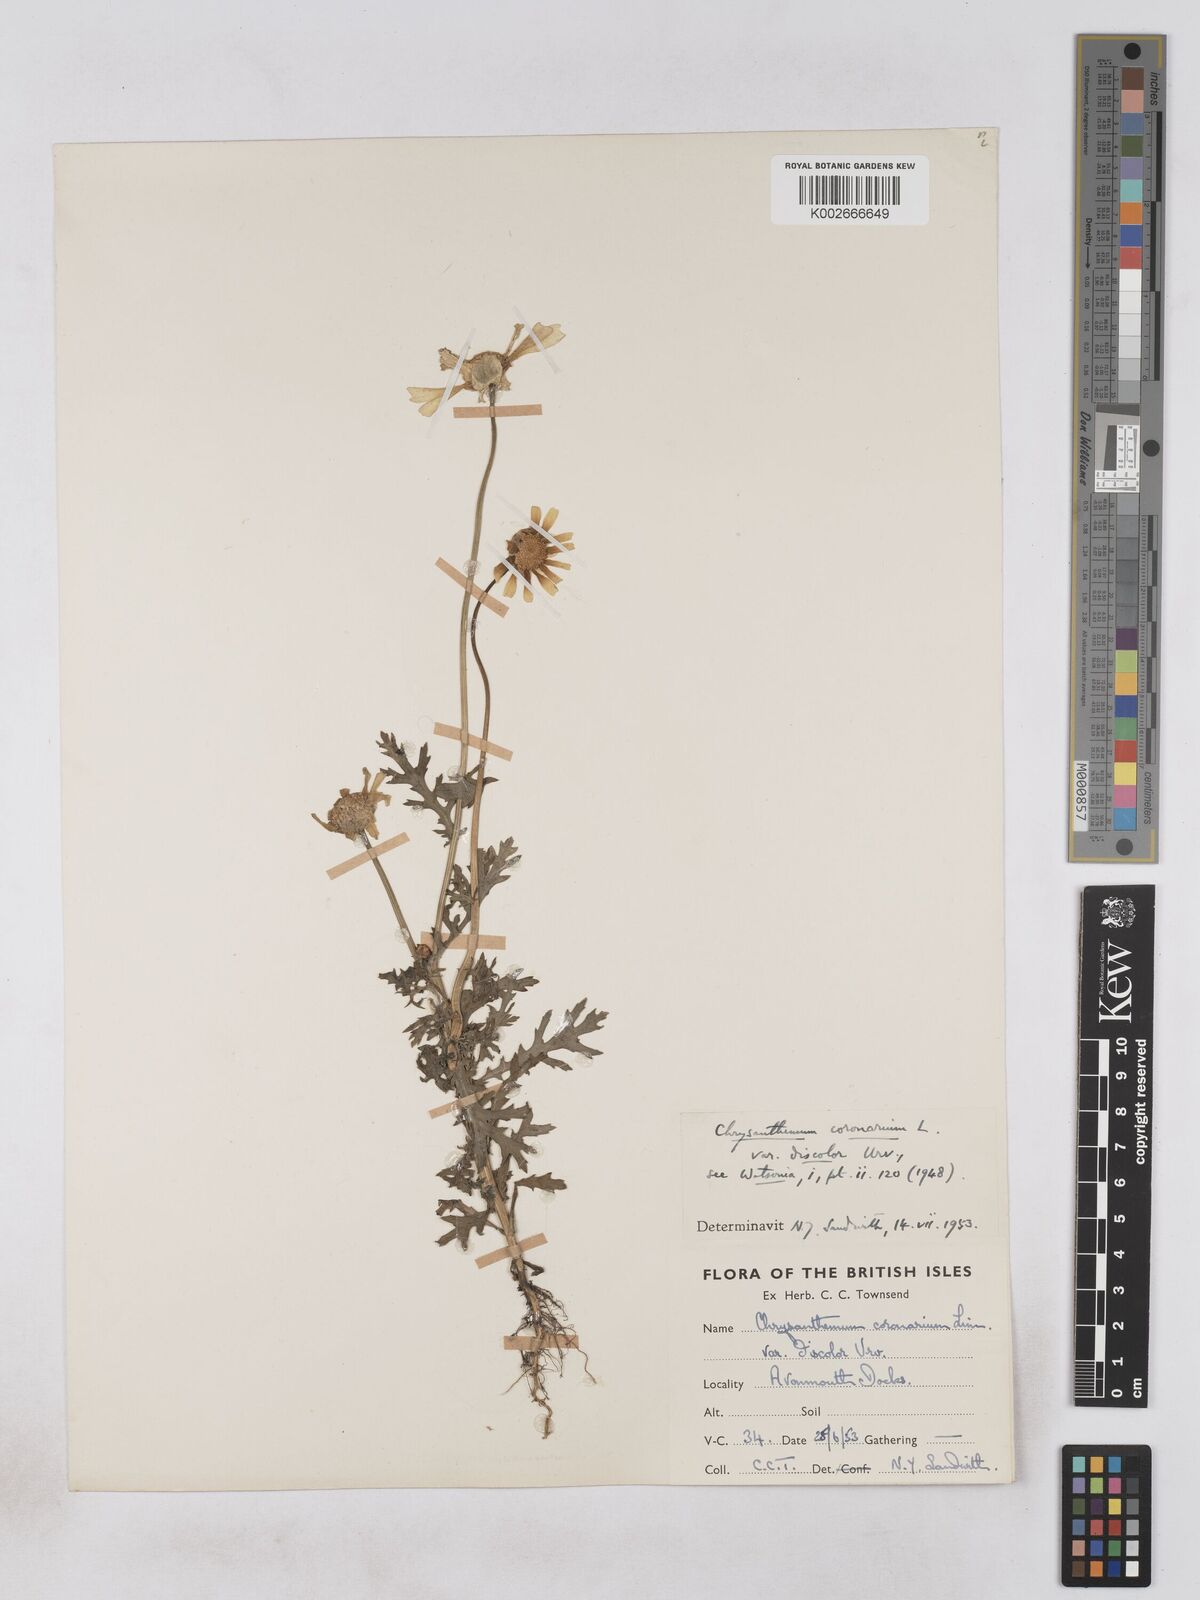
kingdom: Plantae
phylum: Tracheophyta
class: Magnoliopsida
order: Asterales
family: Asteraceae
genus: Glebionis
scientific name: Glebionis coronaria
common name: Crowndaisy
